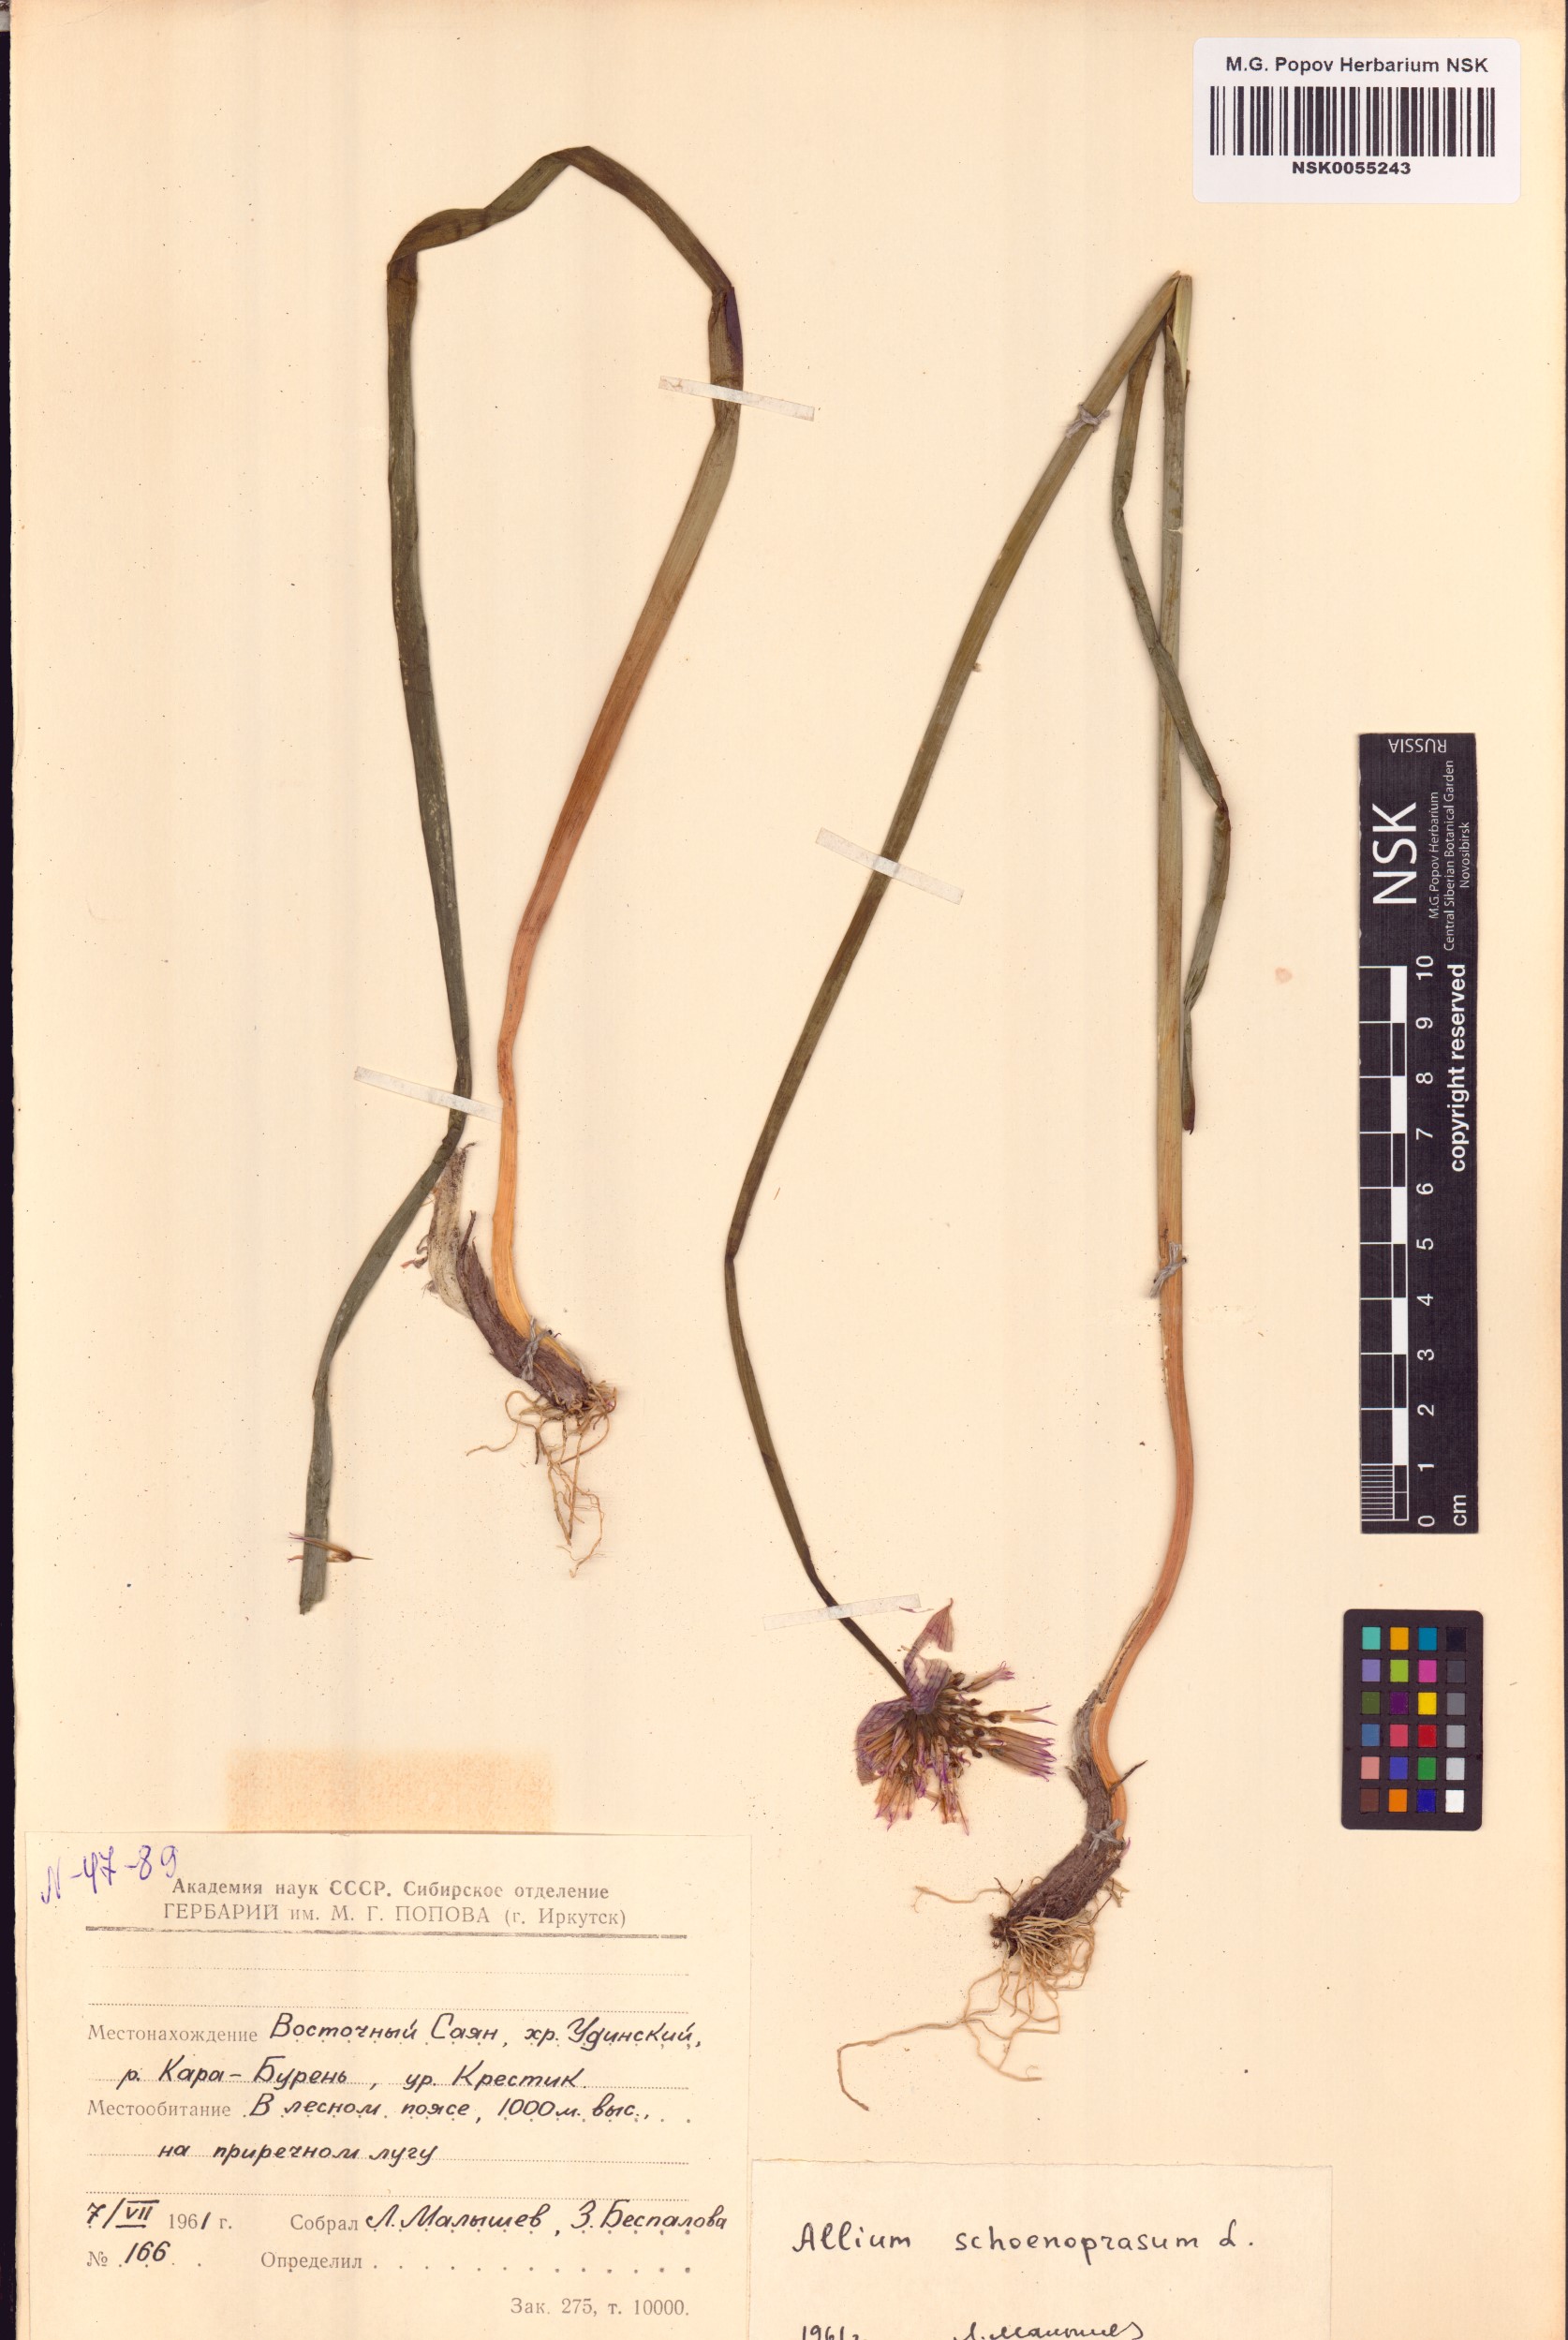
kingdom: Plantae
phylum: Tracheophyta
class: Liliopsida
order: Asparagales
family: Amaryllidaceae
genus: Allium
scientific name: Allium schoenoprasum
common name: Chives
